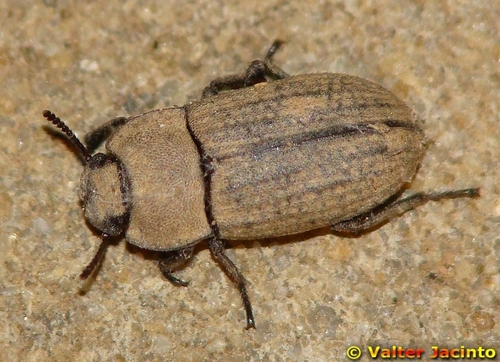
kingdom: Animalia
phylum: Arthropoda
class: Insecta
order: Coleoptera
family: Tenebrionidae
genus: Gonocephalum
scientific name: Gonocephalum
